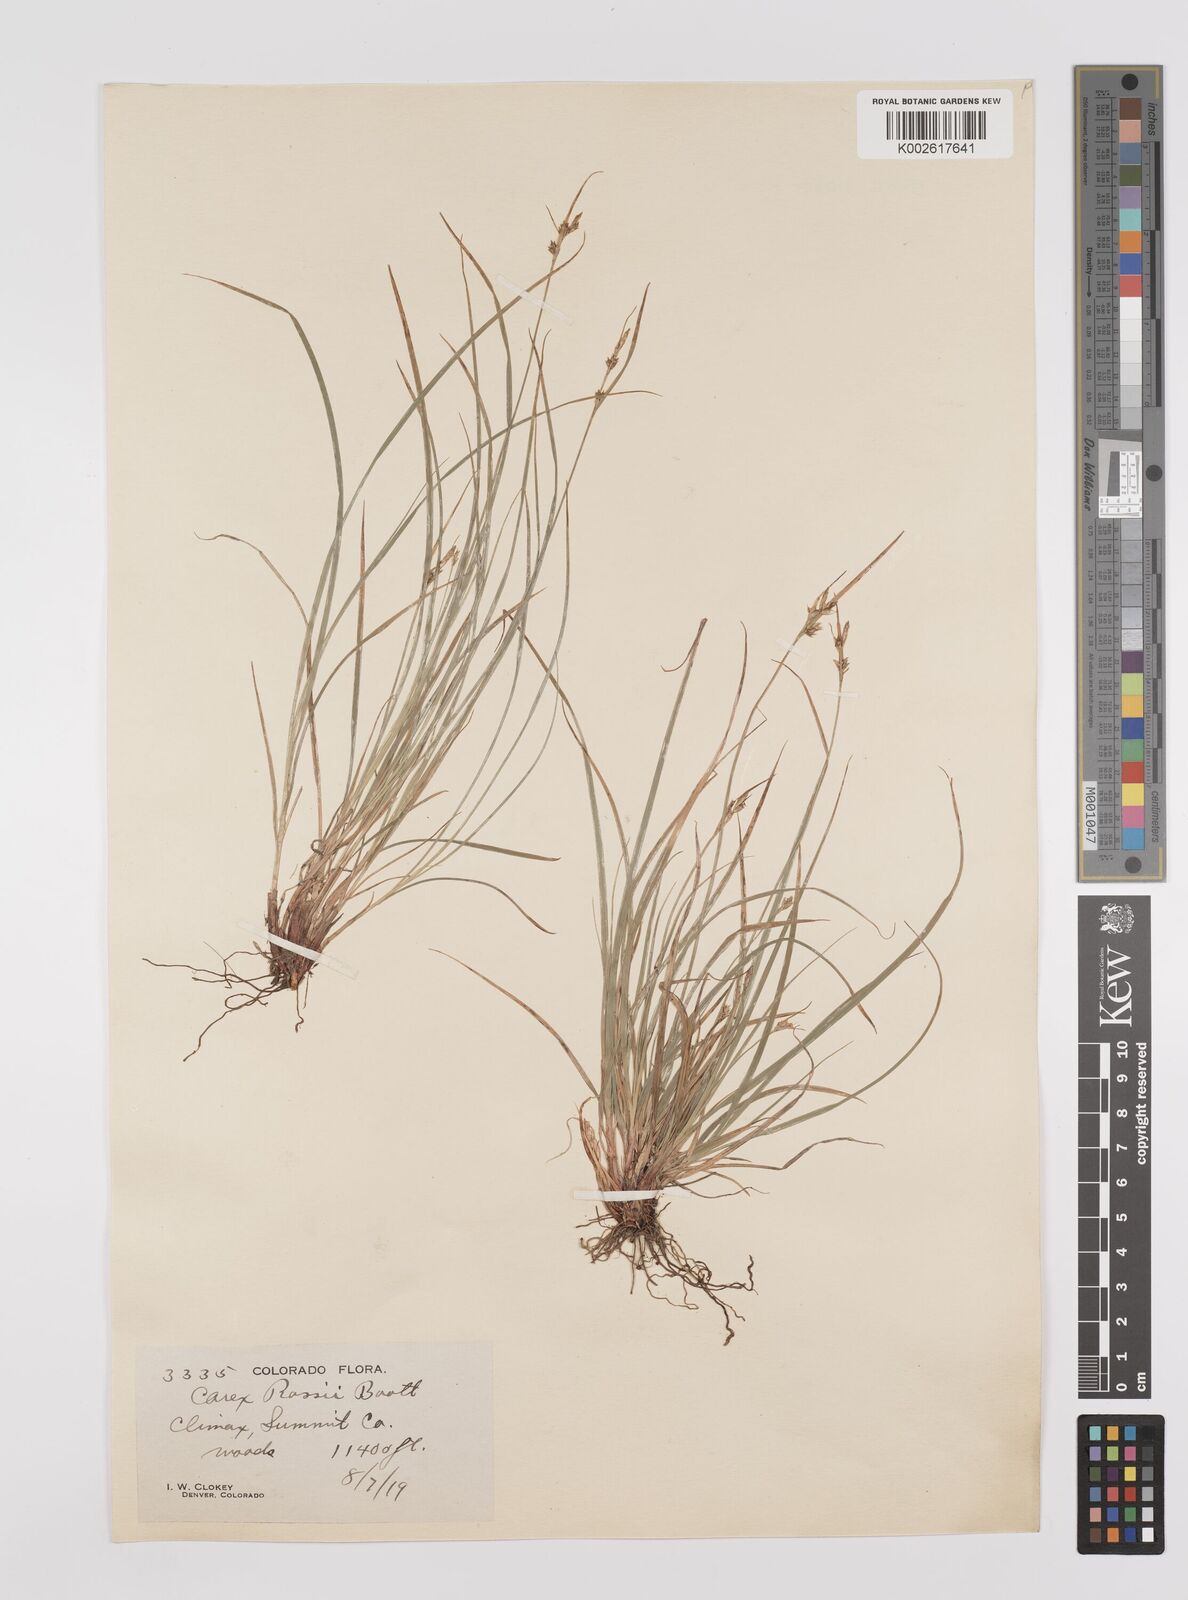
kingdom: Plantae
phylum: Tracheophyta
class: Liliopsida
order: Poales
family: Cyperaceae
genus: Carex
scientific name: Carex rossii
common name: Ross' sedge
